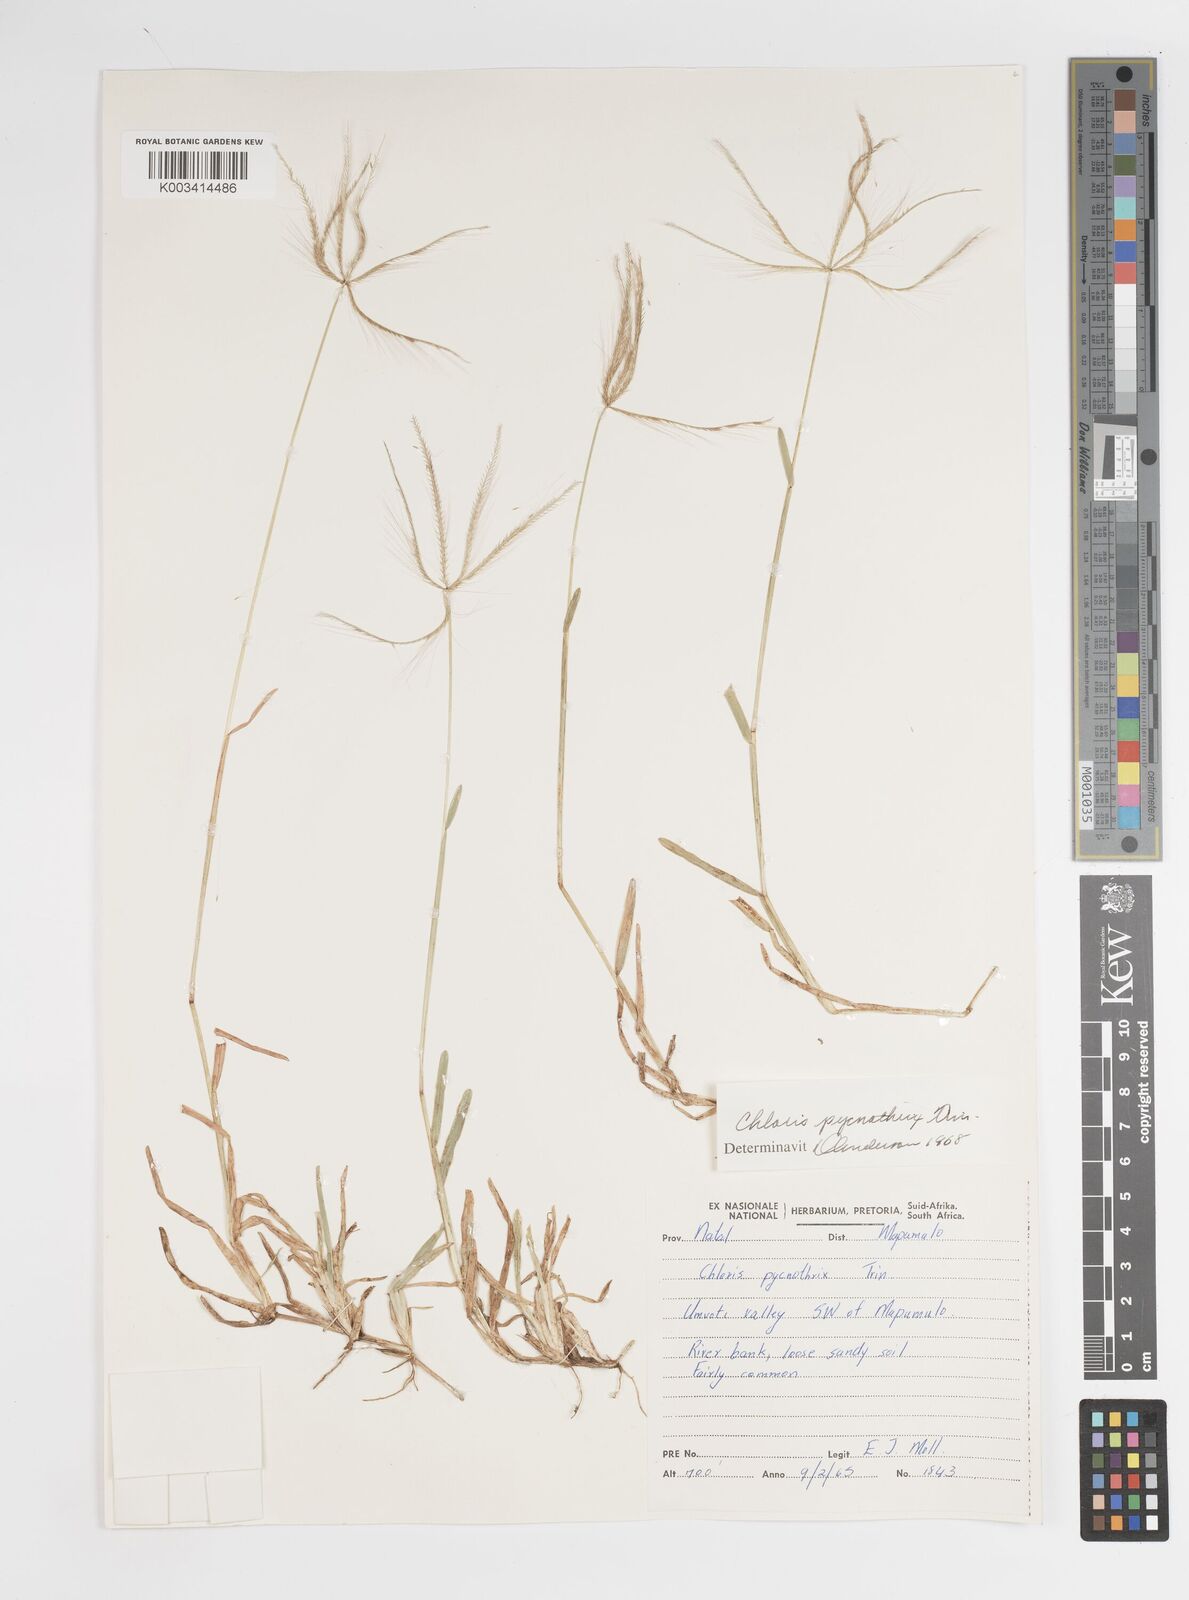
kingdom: Plantae
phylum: Tracheophyta
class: Liliopsida
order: Poales
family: Poaceae
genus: Chloris
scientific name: Chloris pycnothrix
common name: Spiderweb chloris
